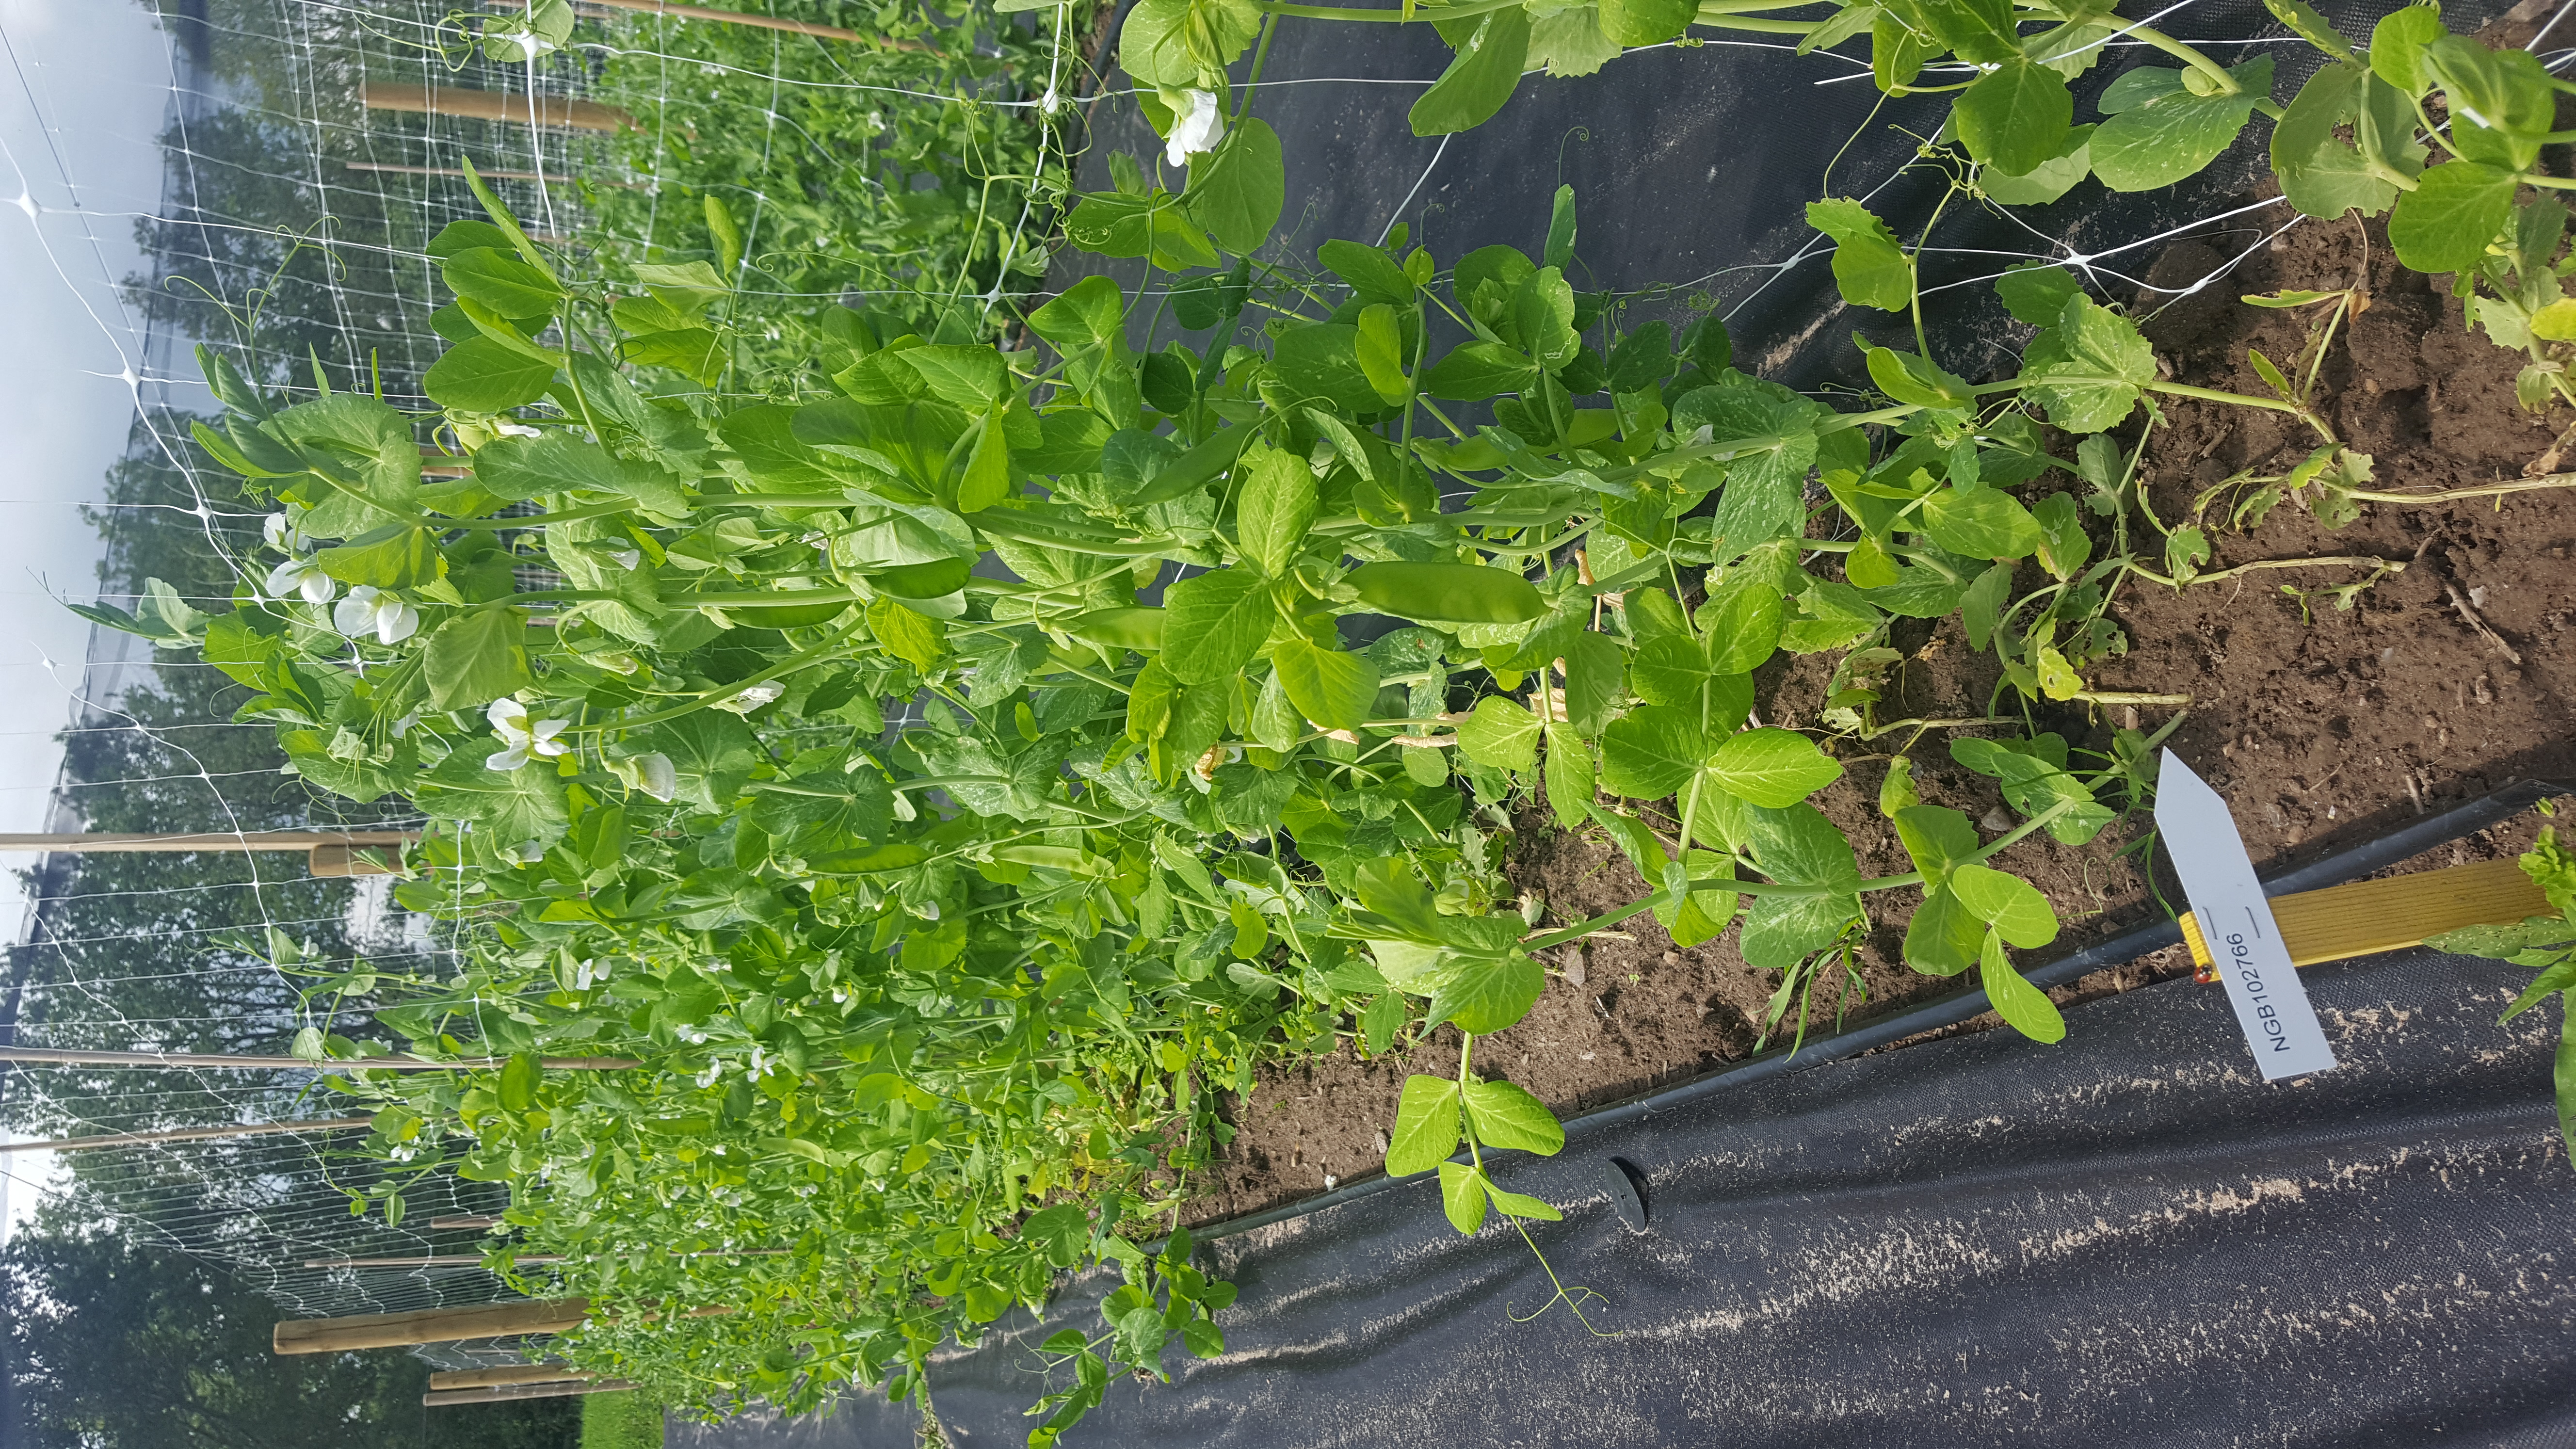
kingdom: Plantae
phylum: Tracheophyta
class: Magnoliopsida
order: Fabales
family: Fabaceae
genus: Lathyrus
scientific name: Lathyrus oleraceus
